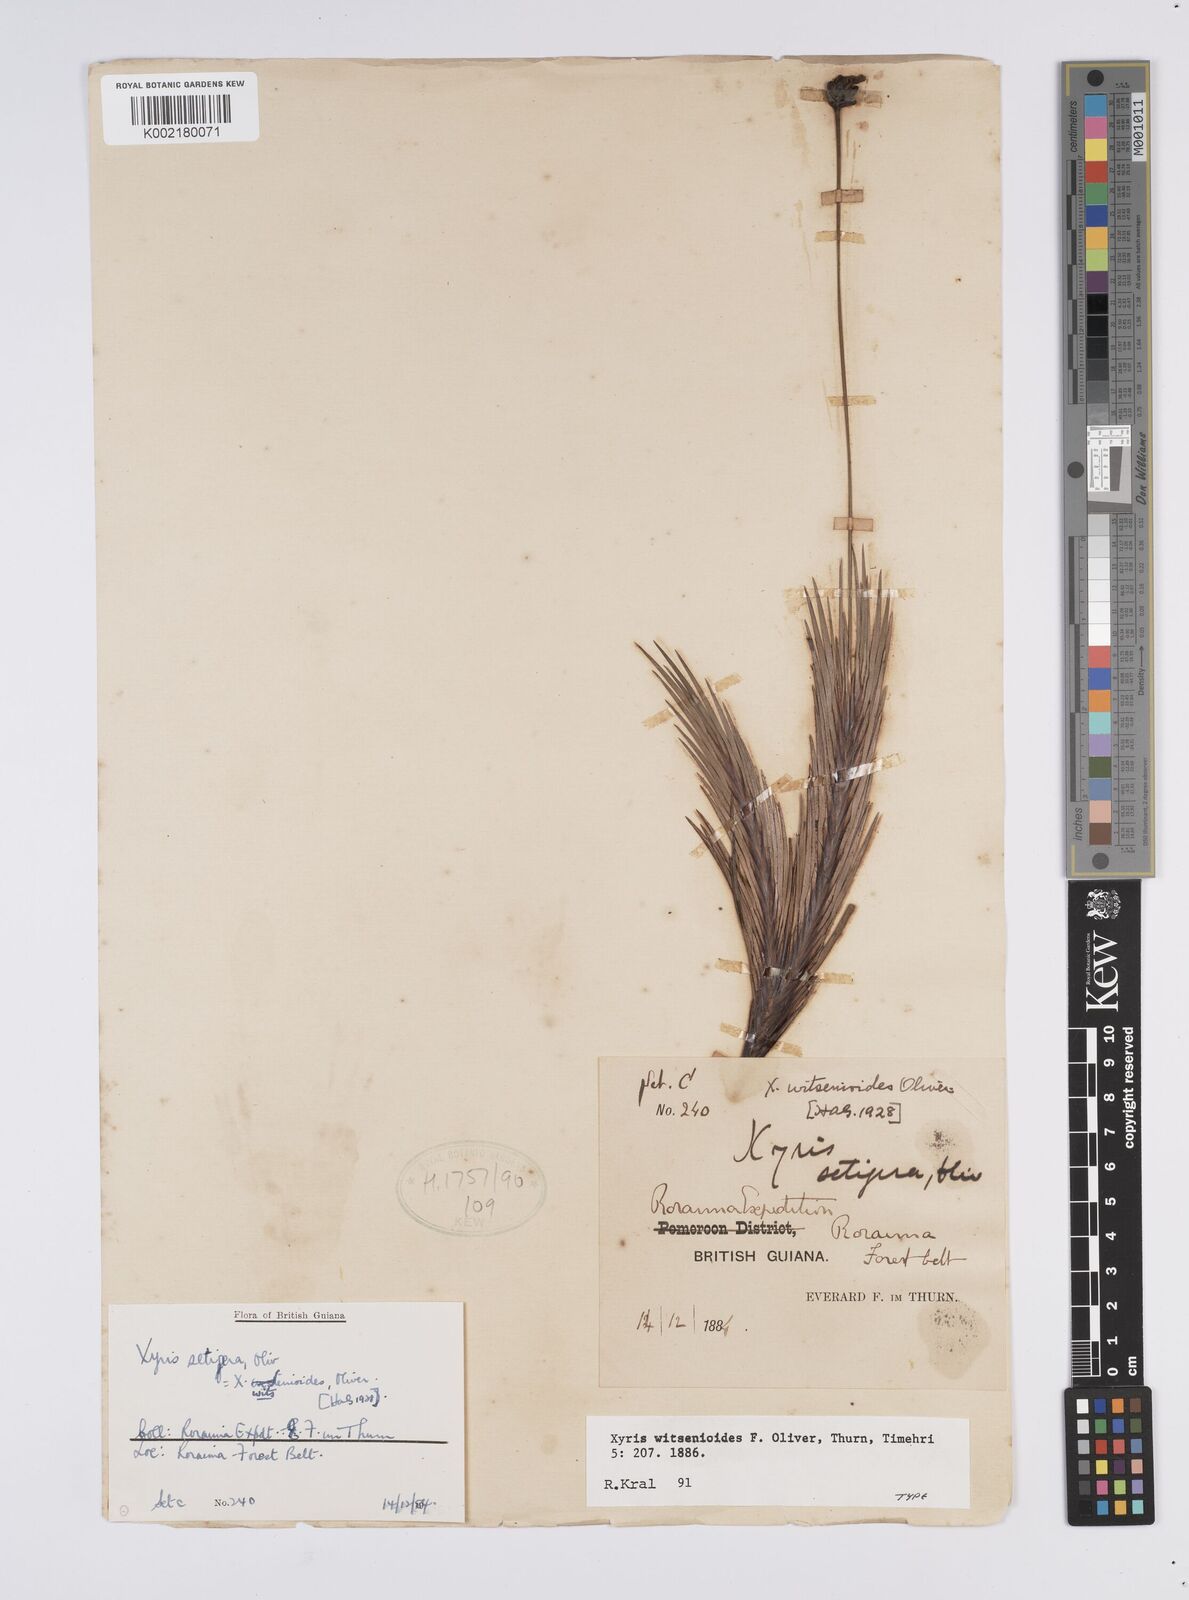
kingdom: Plantae
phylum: Tracheophyta
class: Liliopsida
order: Poales
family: Xyridaceae
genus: Xyris
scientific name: Xyris witsenioides
